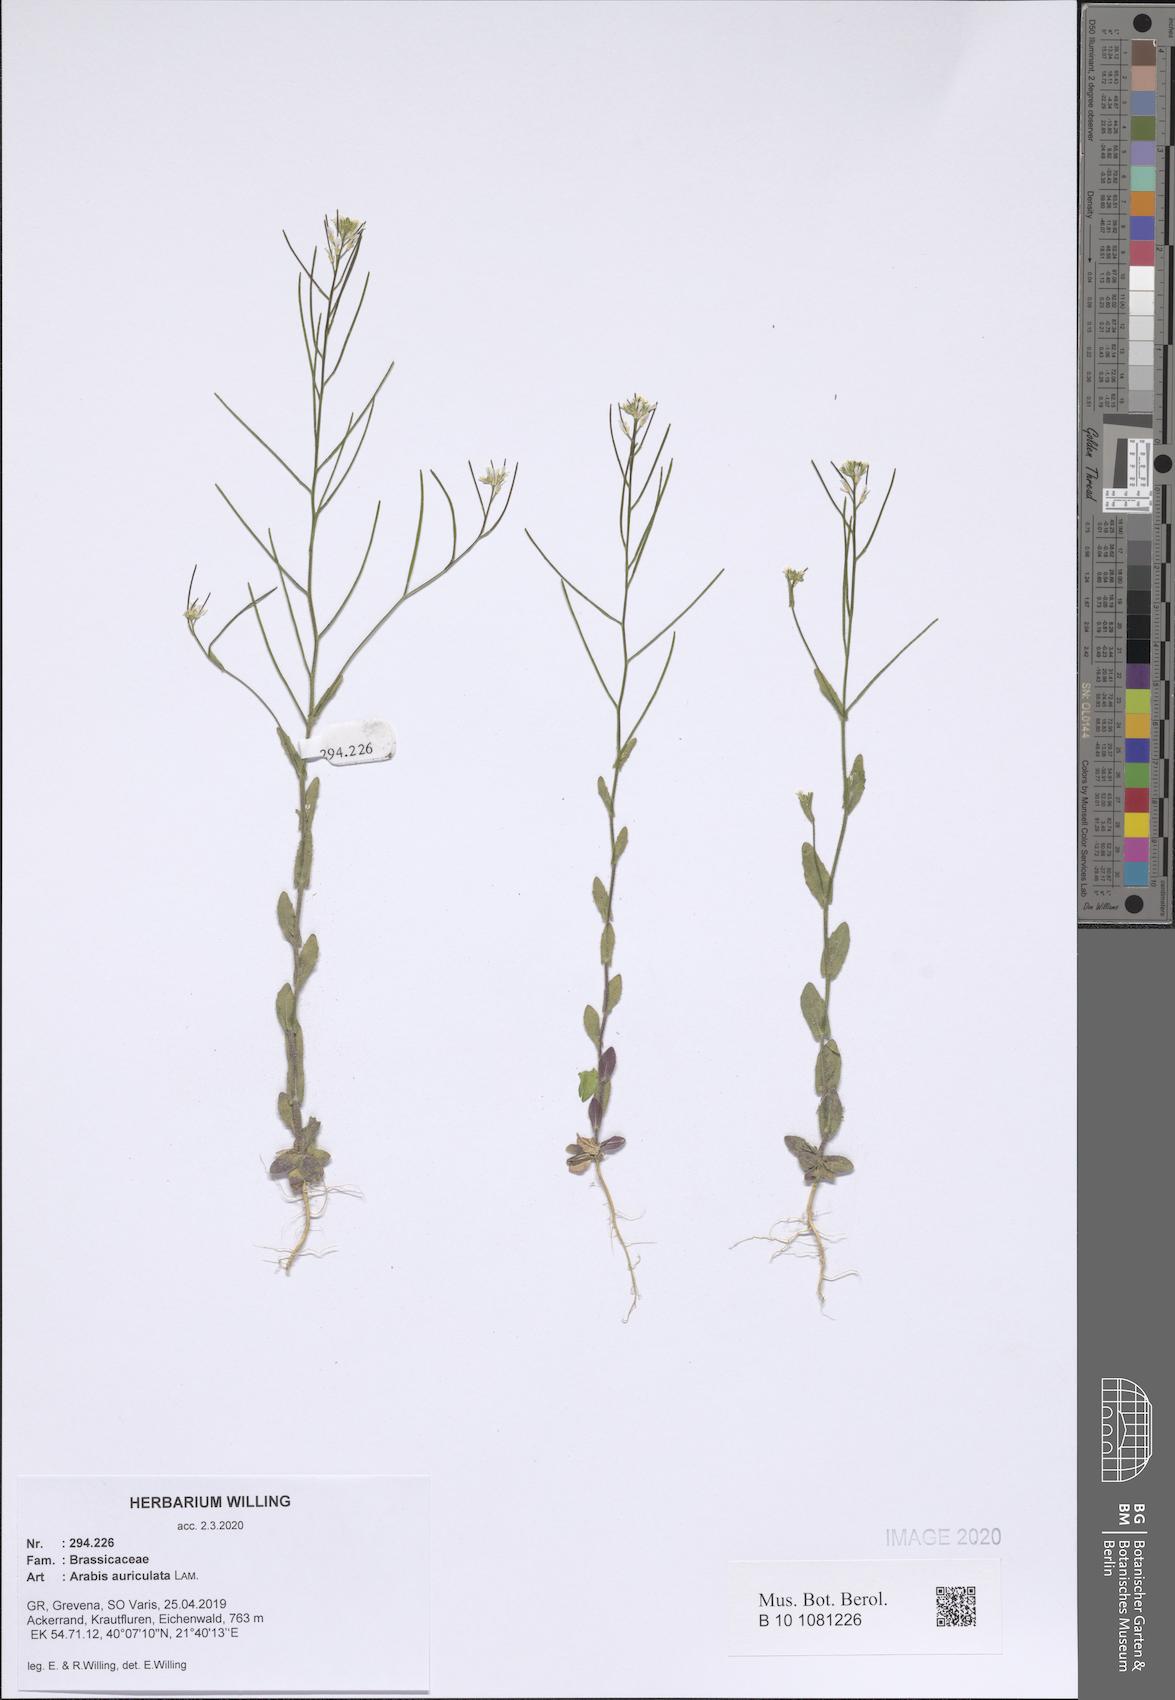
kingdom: Plantae
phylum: Tracheophyta
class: Magnoliopsida
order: Brassicales
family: Brassicaceae
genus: Arabis
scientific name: Arabis auriculata
